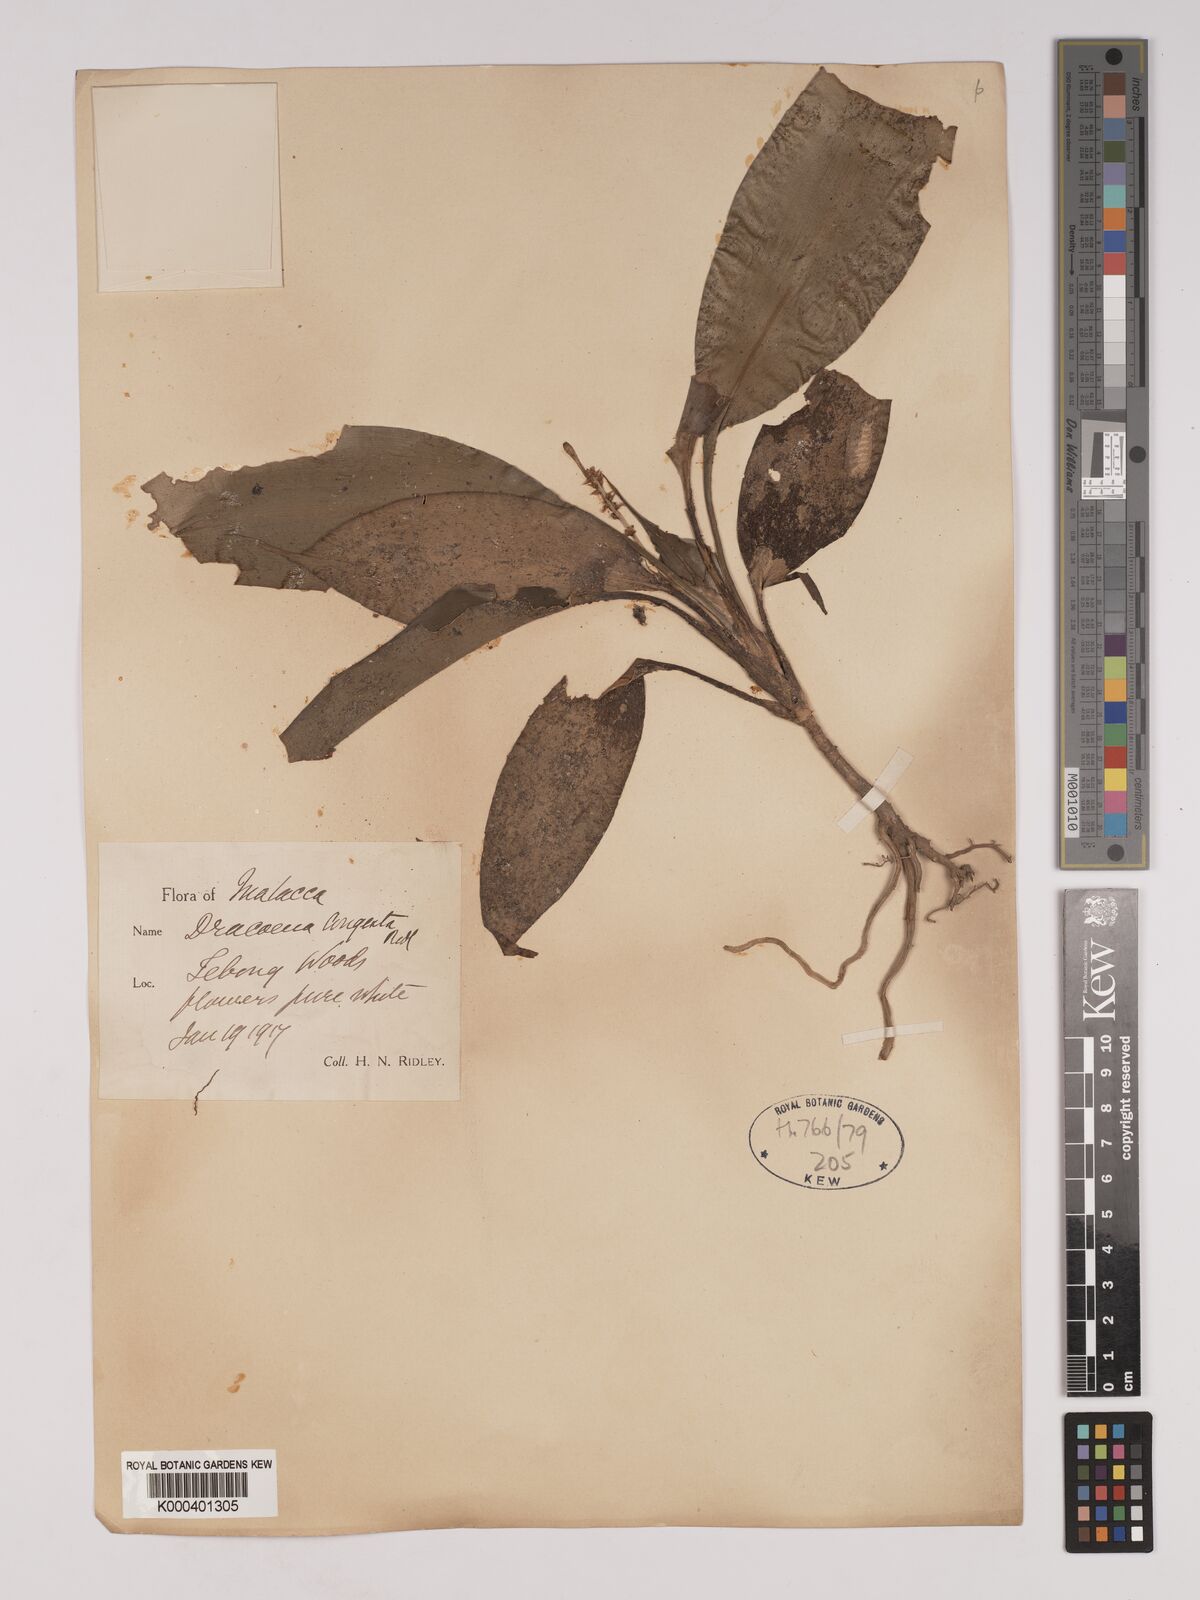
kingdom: Plantae
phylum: Tracheophyta
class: Liliopsida
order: Asparagales
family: Asparagaceae
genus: Dracaena
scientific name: Dracaena chiniana
